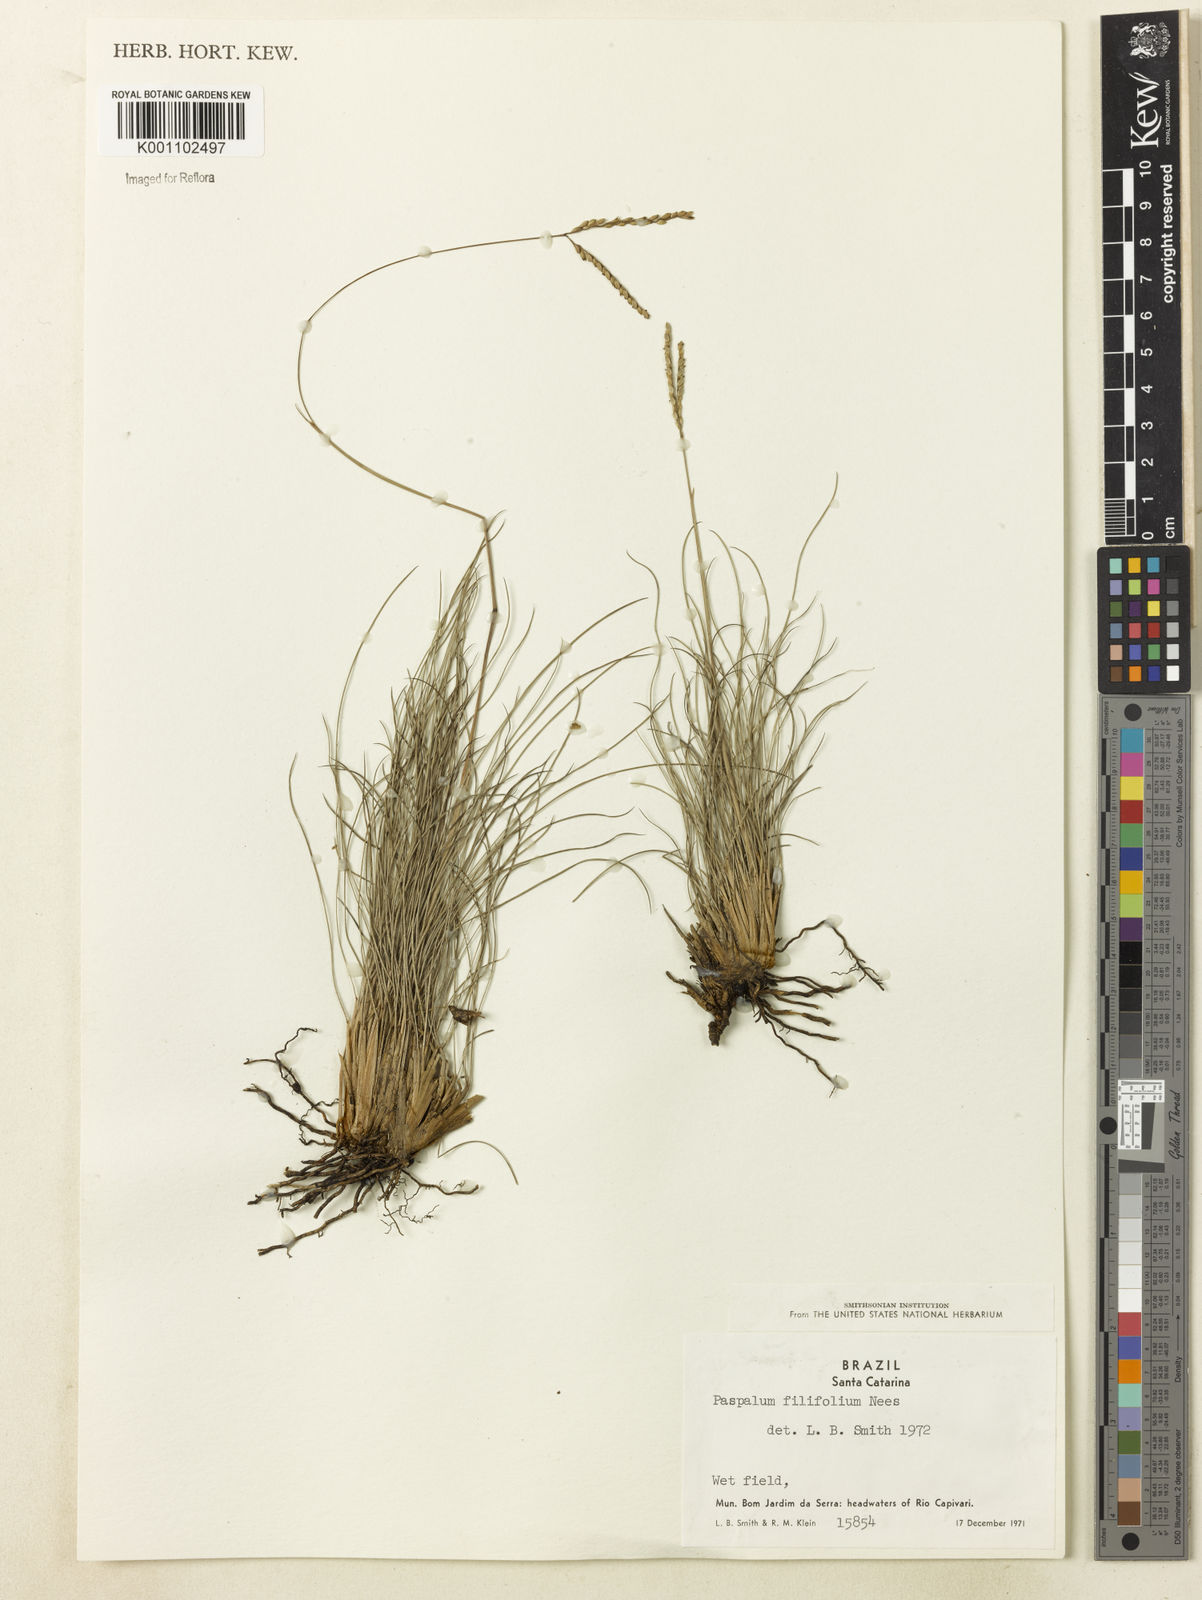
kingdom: Plantae
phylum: Tracheophyta
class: Liliopsida
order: Poales
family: Poaceae
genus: Paspalum
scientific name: Paspalum ellipticum
